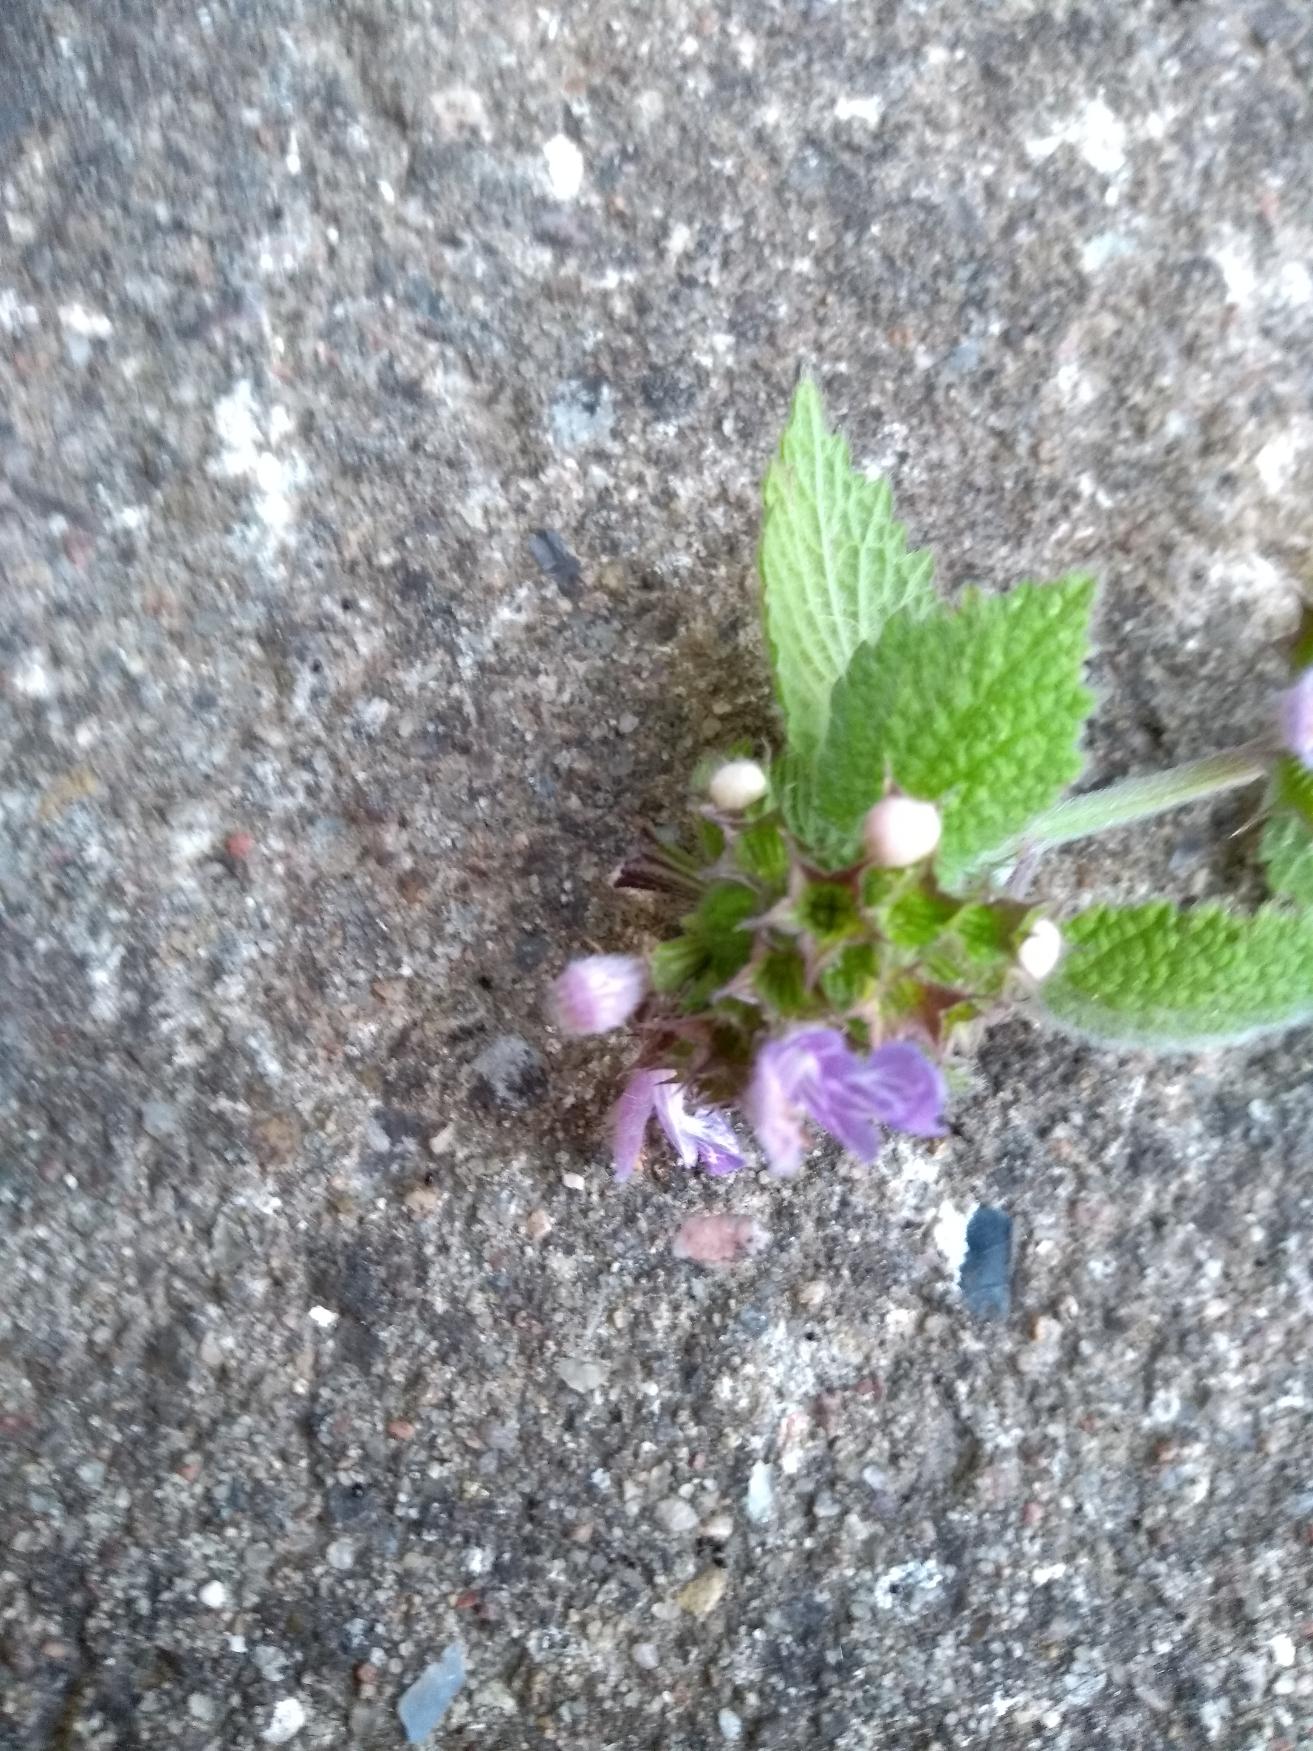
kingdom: Plantae
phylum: Tracheophyta
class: Magnoliopsida
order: Lamiales
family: Lamiaceae
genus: Ballota
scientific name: Ballota nigra
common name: Tandbæger
